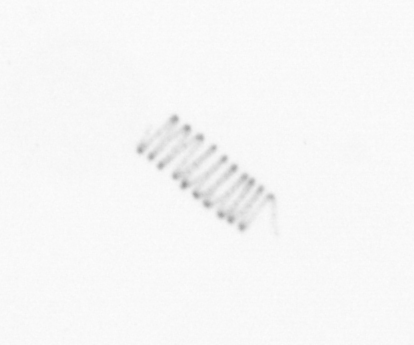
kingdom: Chromista
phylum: Ochrophyta
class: Bacillariophyceae
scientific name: Bacillariophyceae
